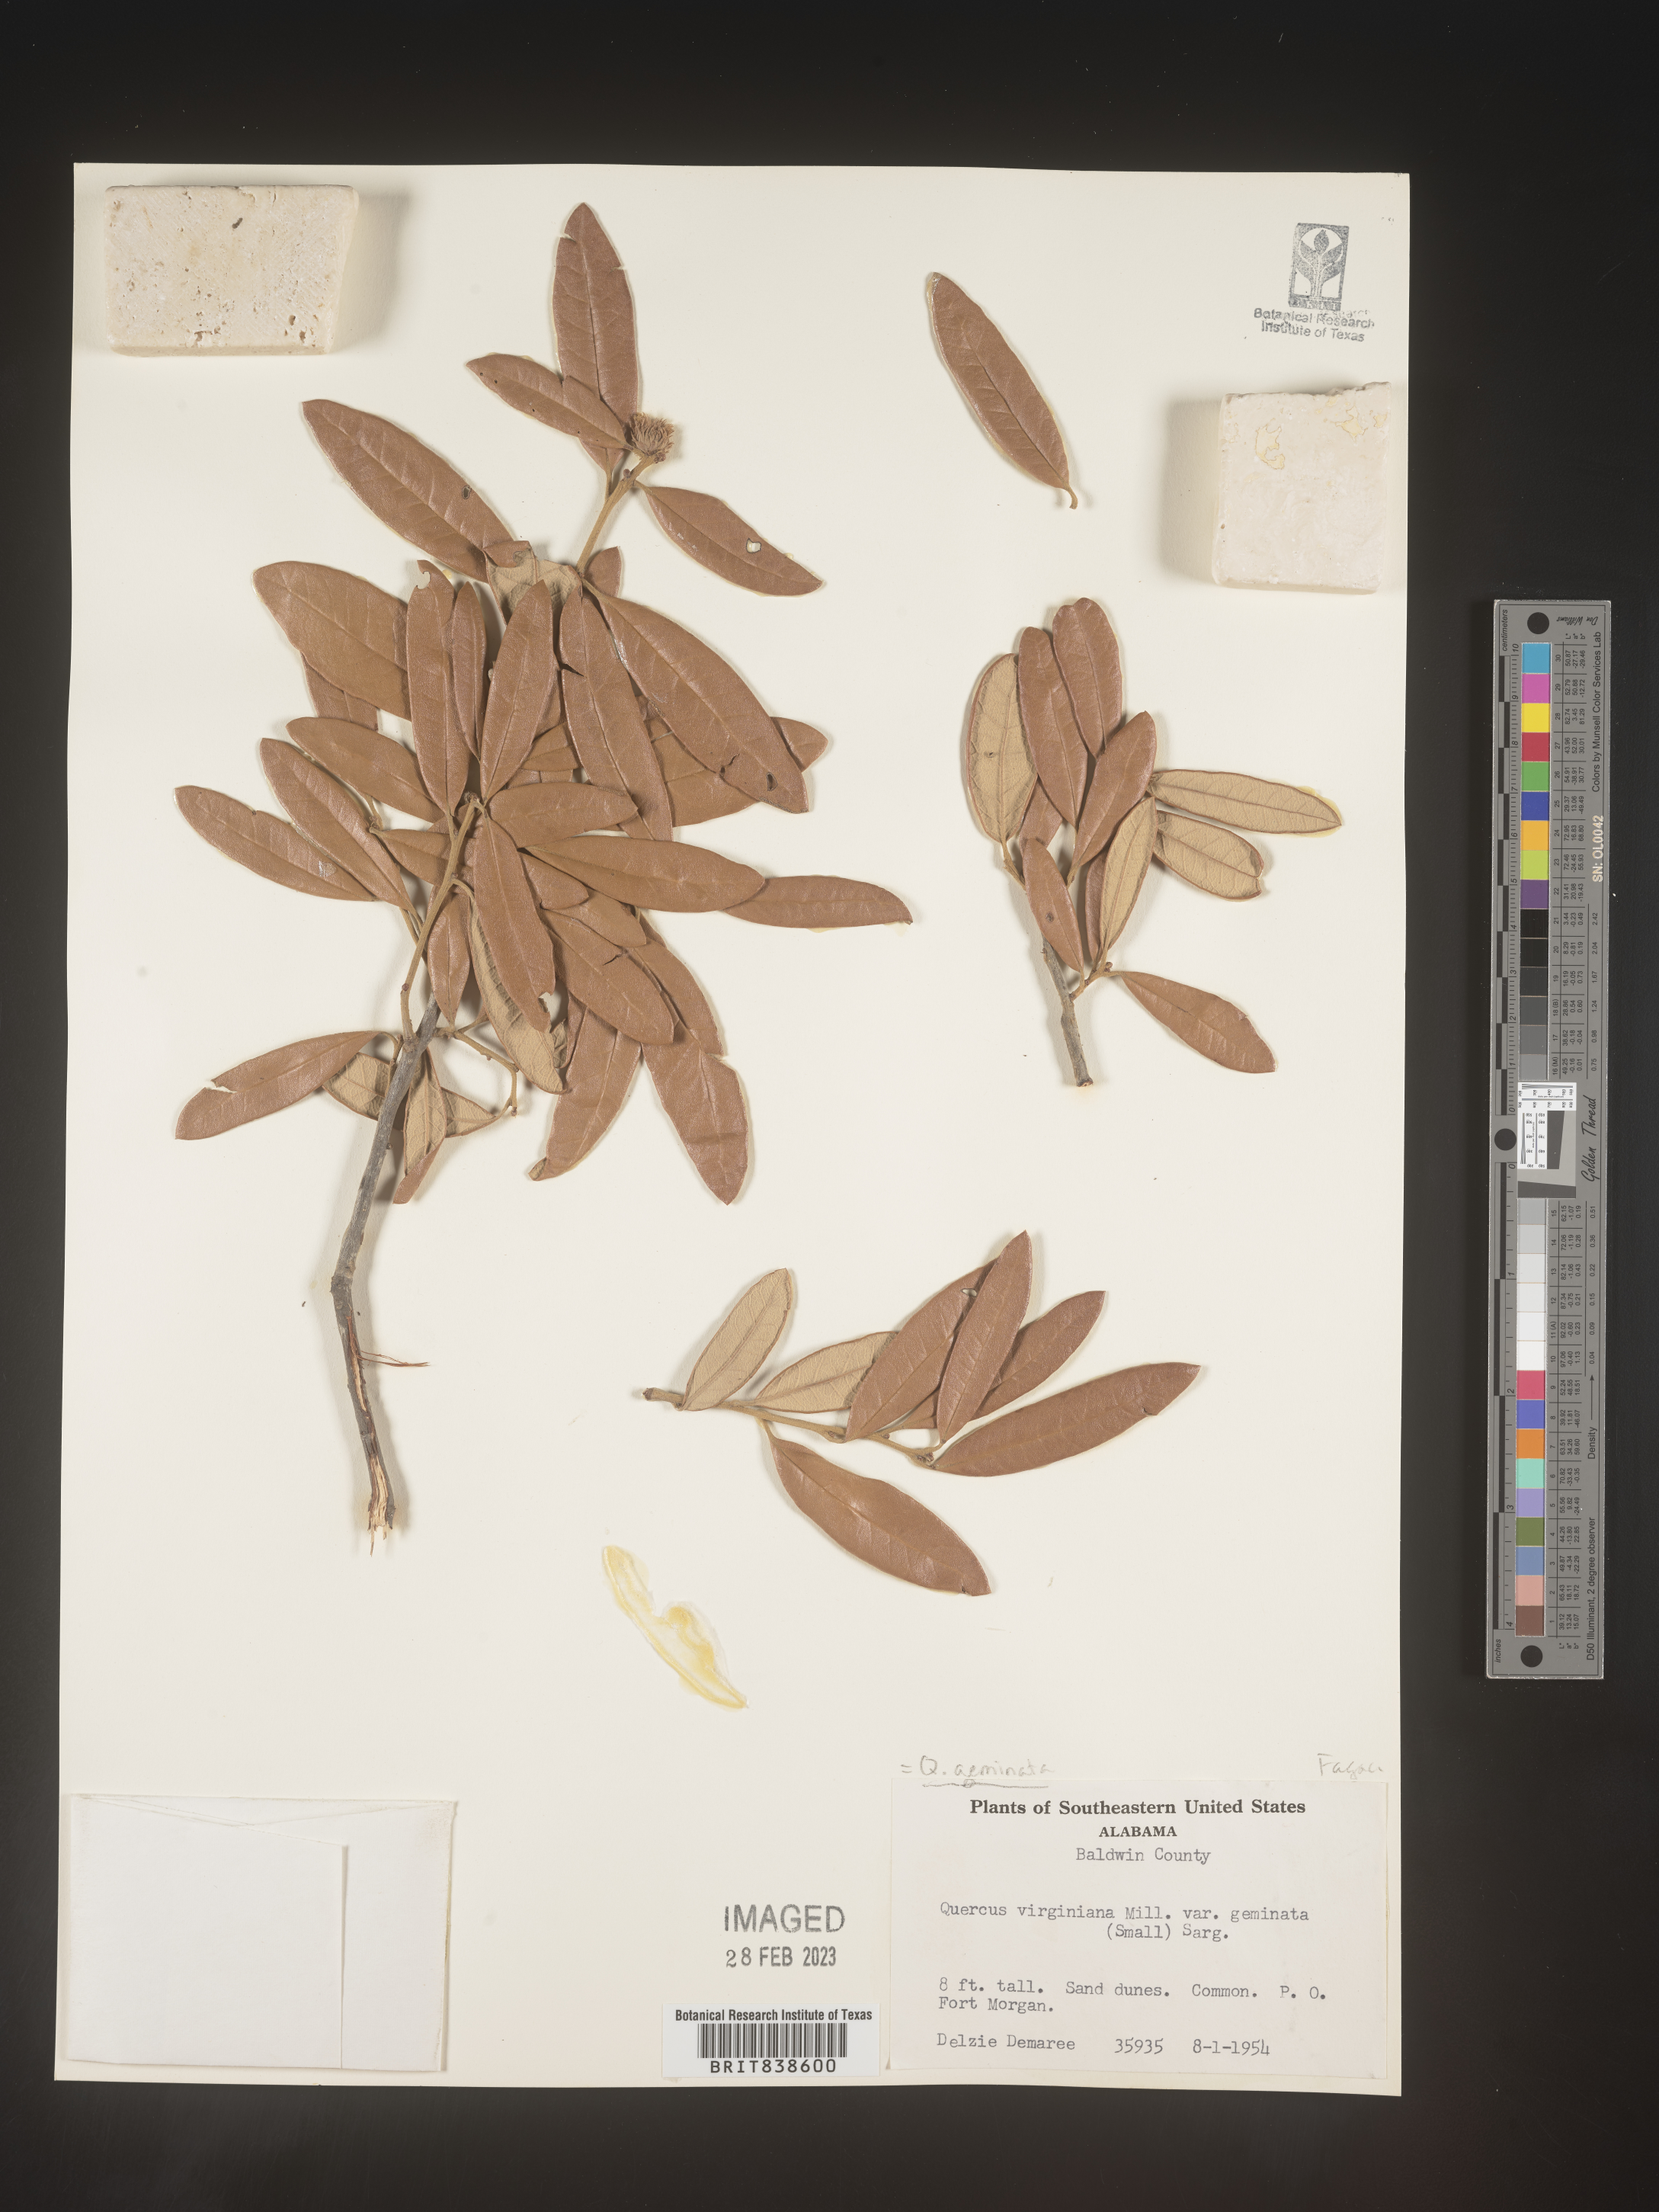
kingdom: Plantae
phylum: Tracheophyta
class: Magnoliopsida
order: Fagales
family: Fagaceae
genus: Quercus
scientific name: Quercus geminata
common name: Sand live oak
